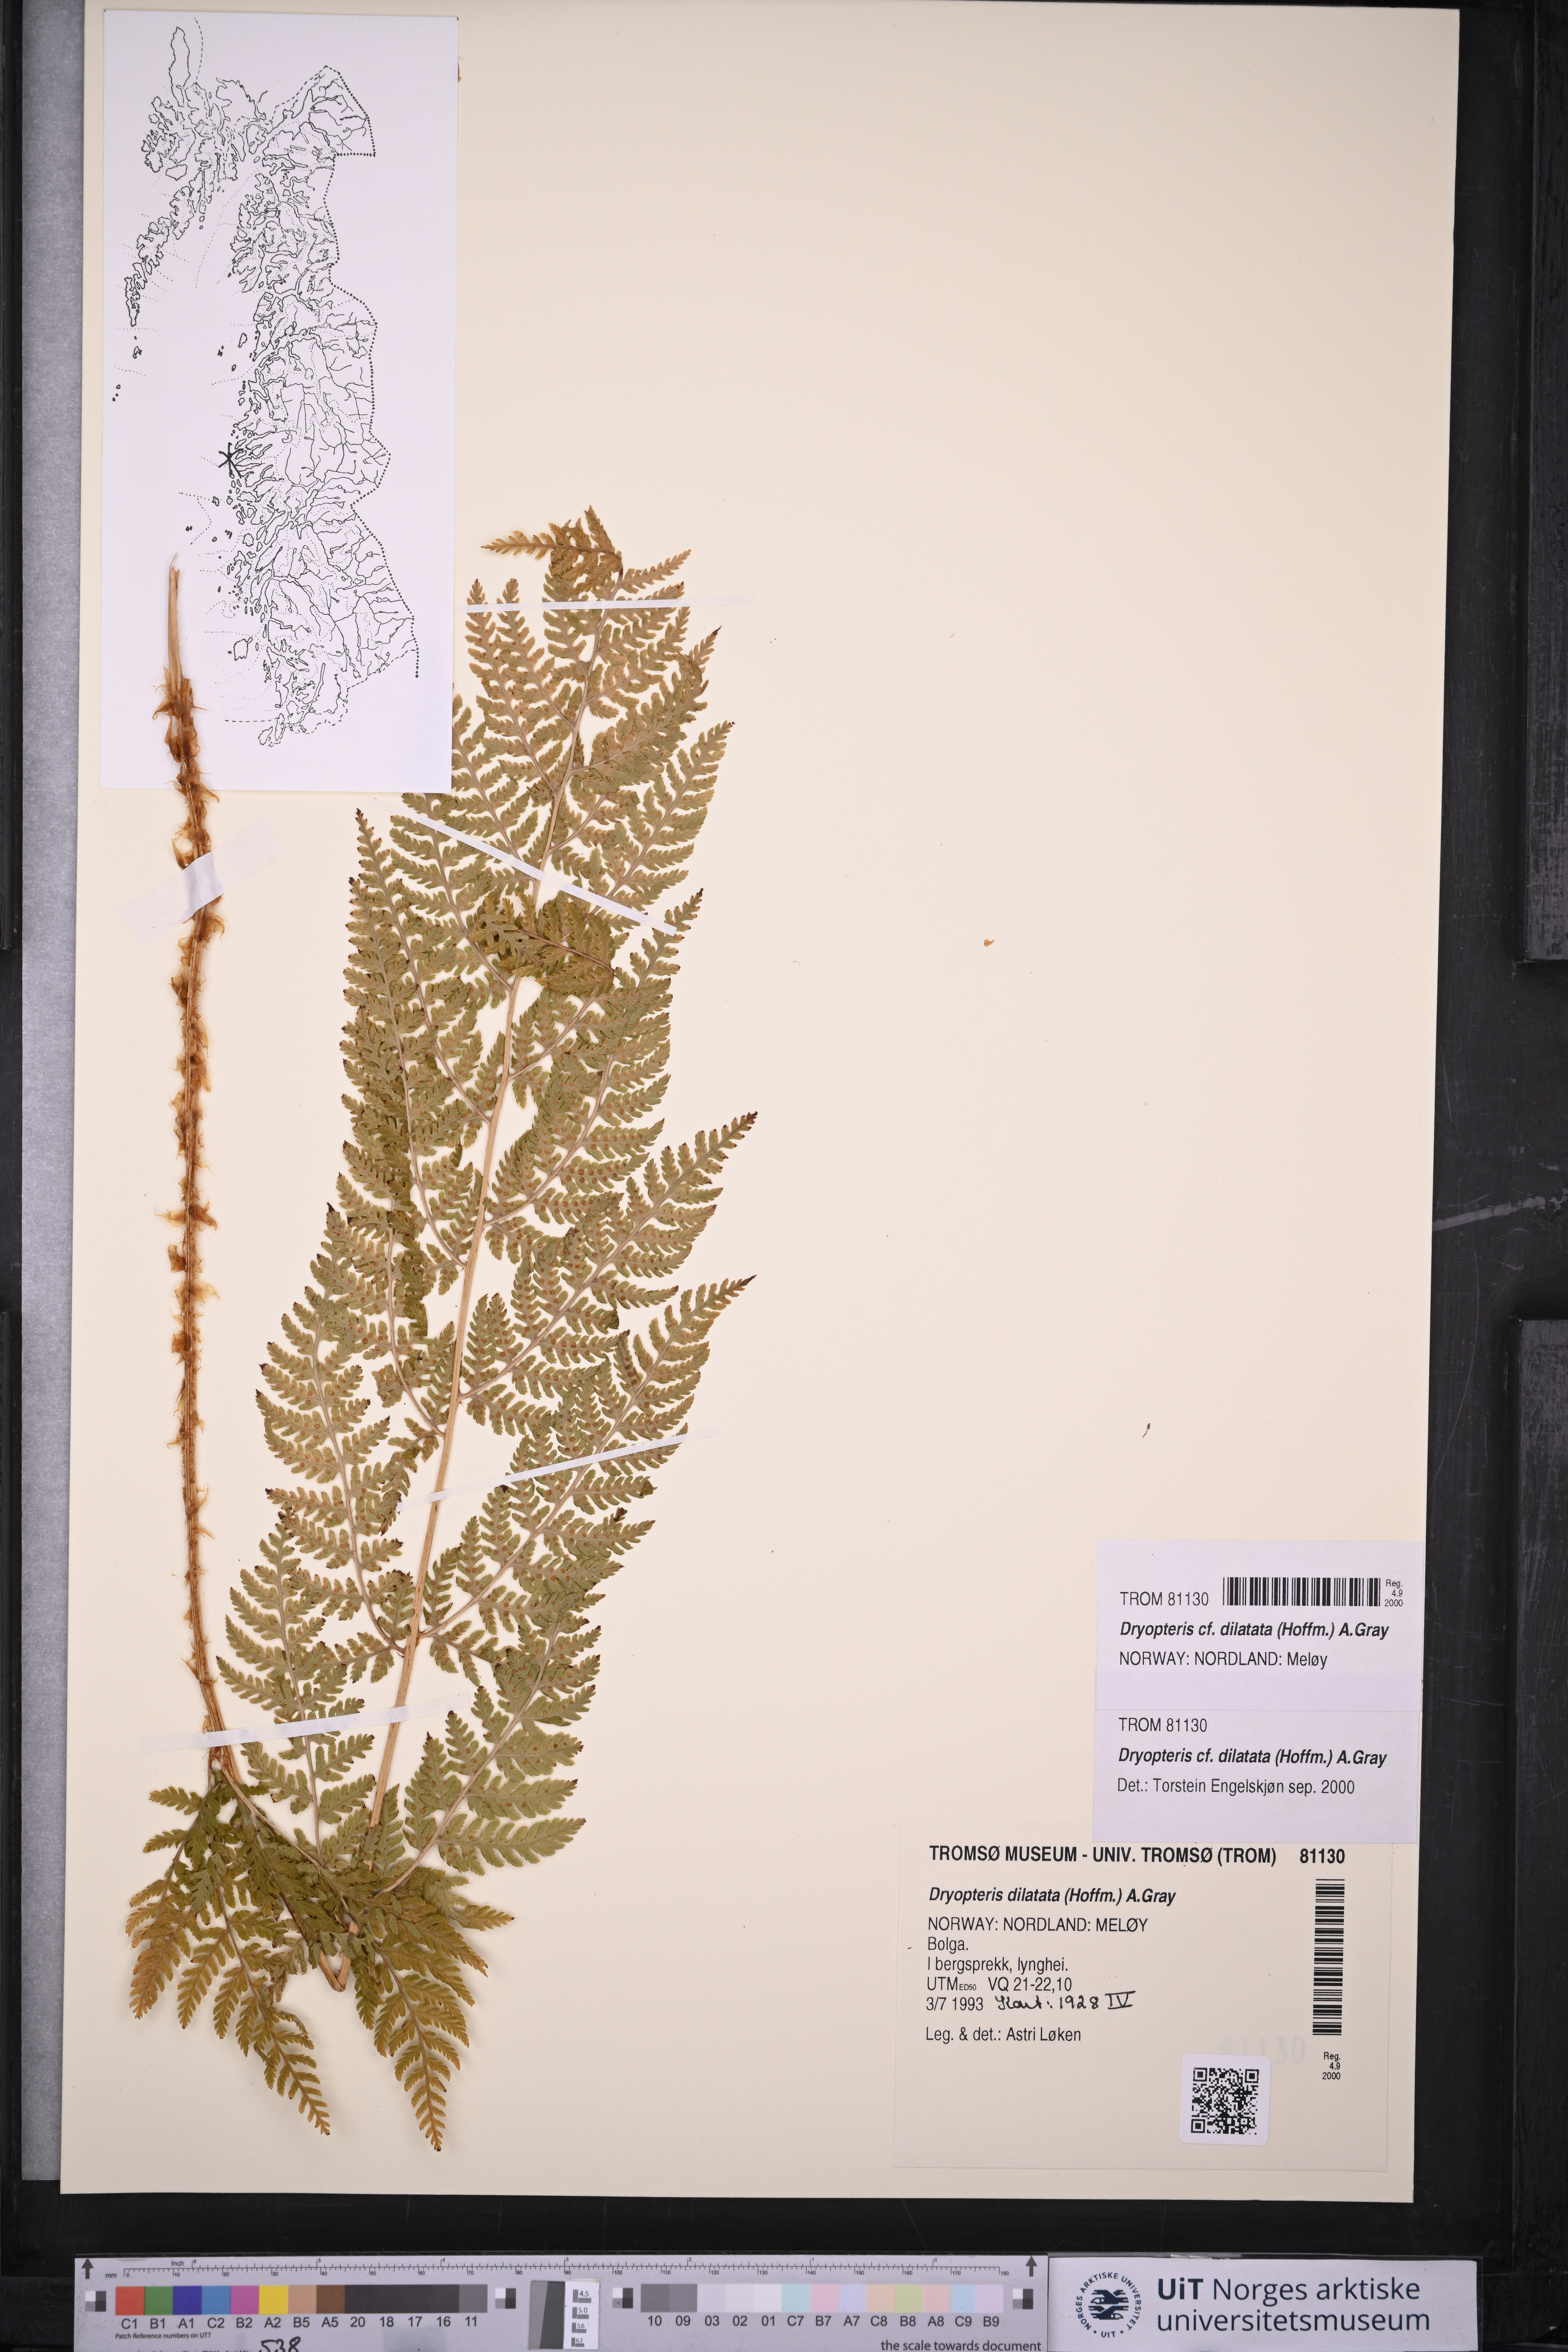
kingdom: Plantae
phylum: Tracheophyta
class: Polypodiopsida
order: Polypodiales
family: Dryopteridaceae
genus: Dryopteris
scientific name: Dryopteris dilatata
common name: Broad buckler-fern
